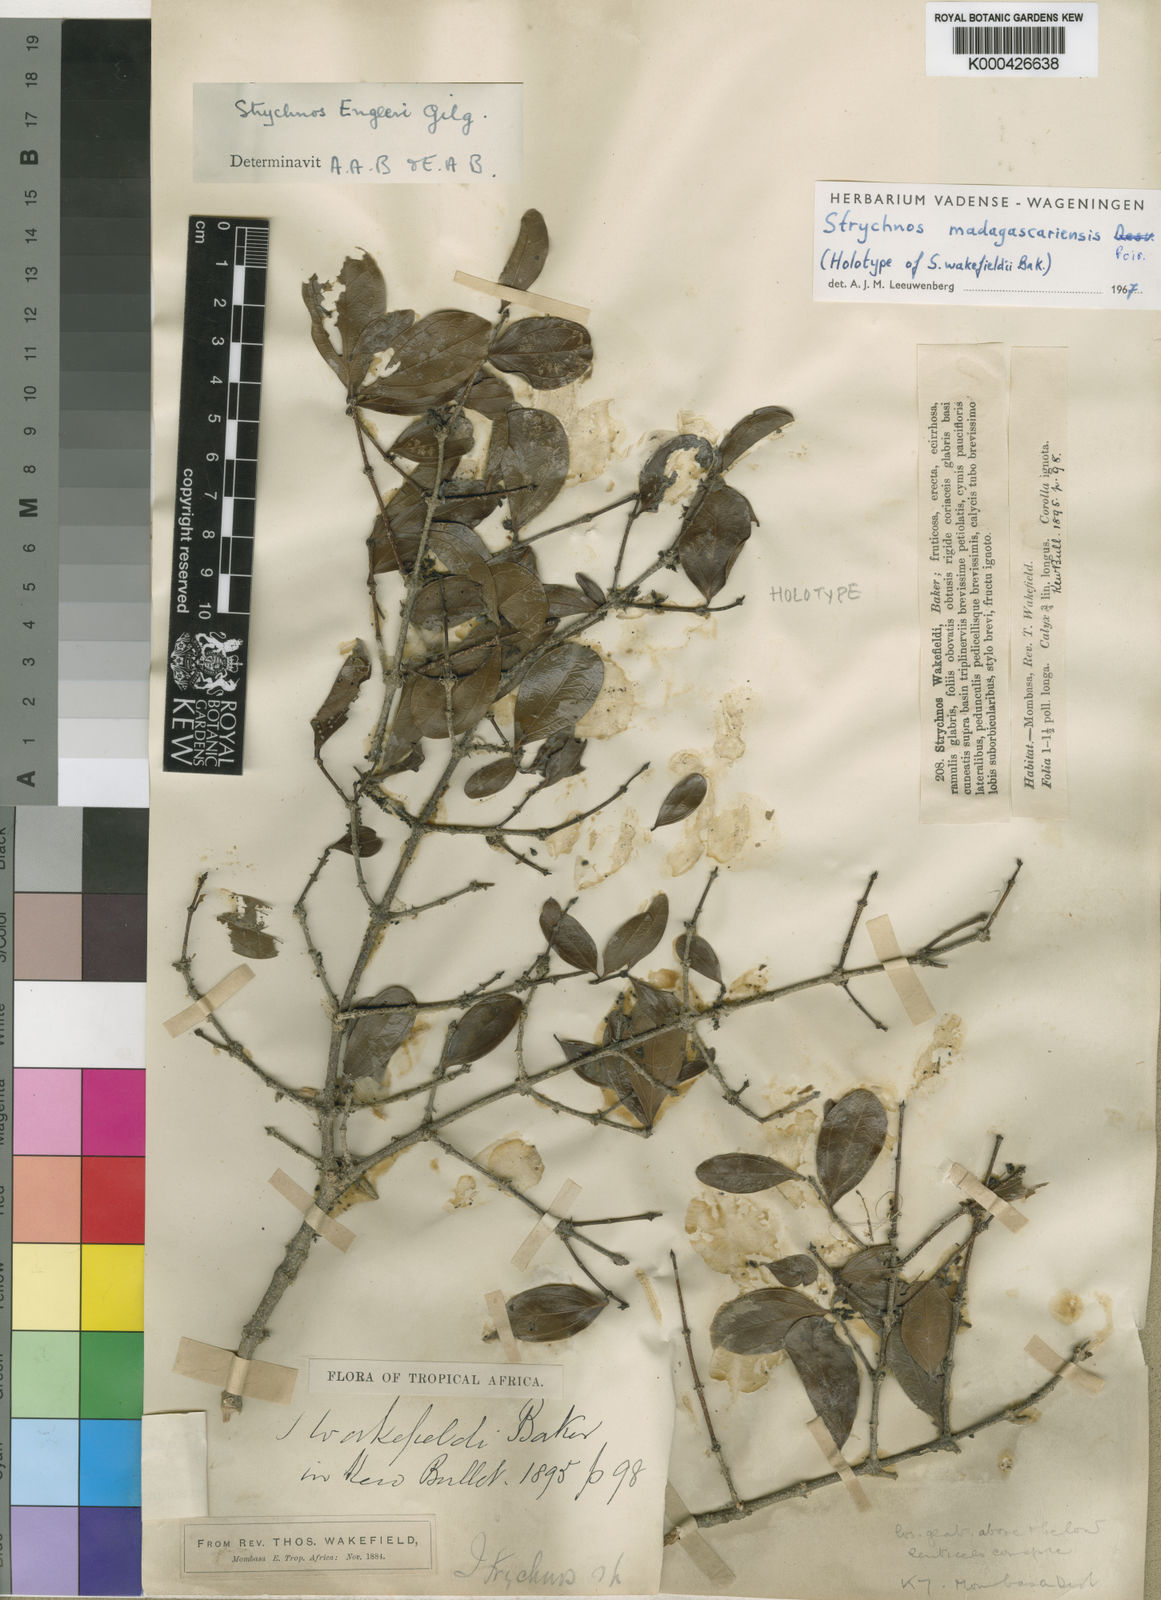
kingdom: Plantae
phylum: Tracheophyta
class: Magnoliopsida
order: Gentianales
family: Loganiaceae
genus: Strychnos
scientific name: Strychnos madagascariensis
